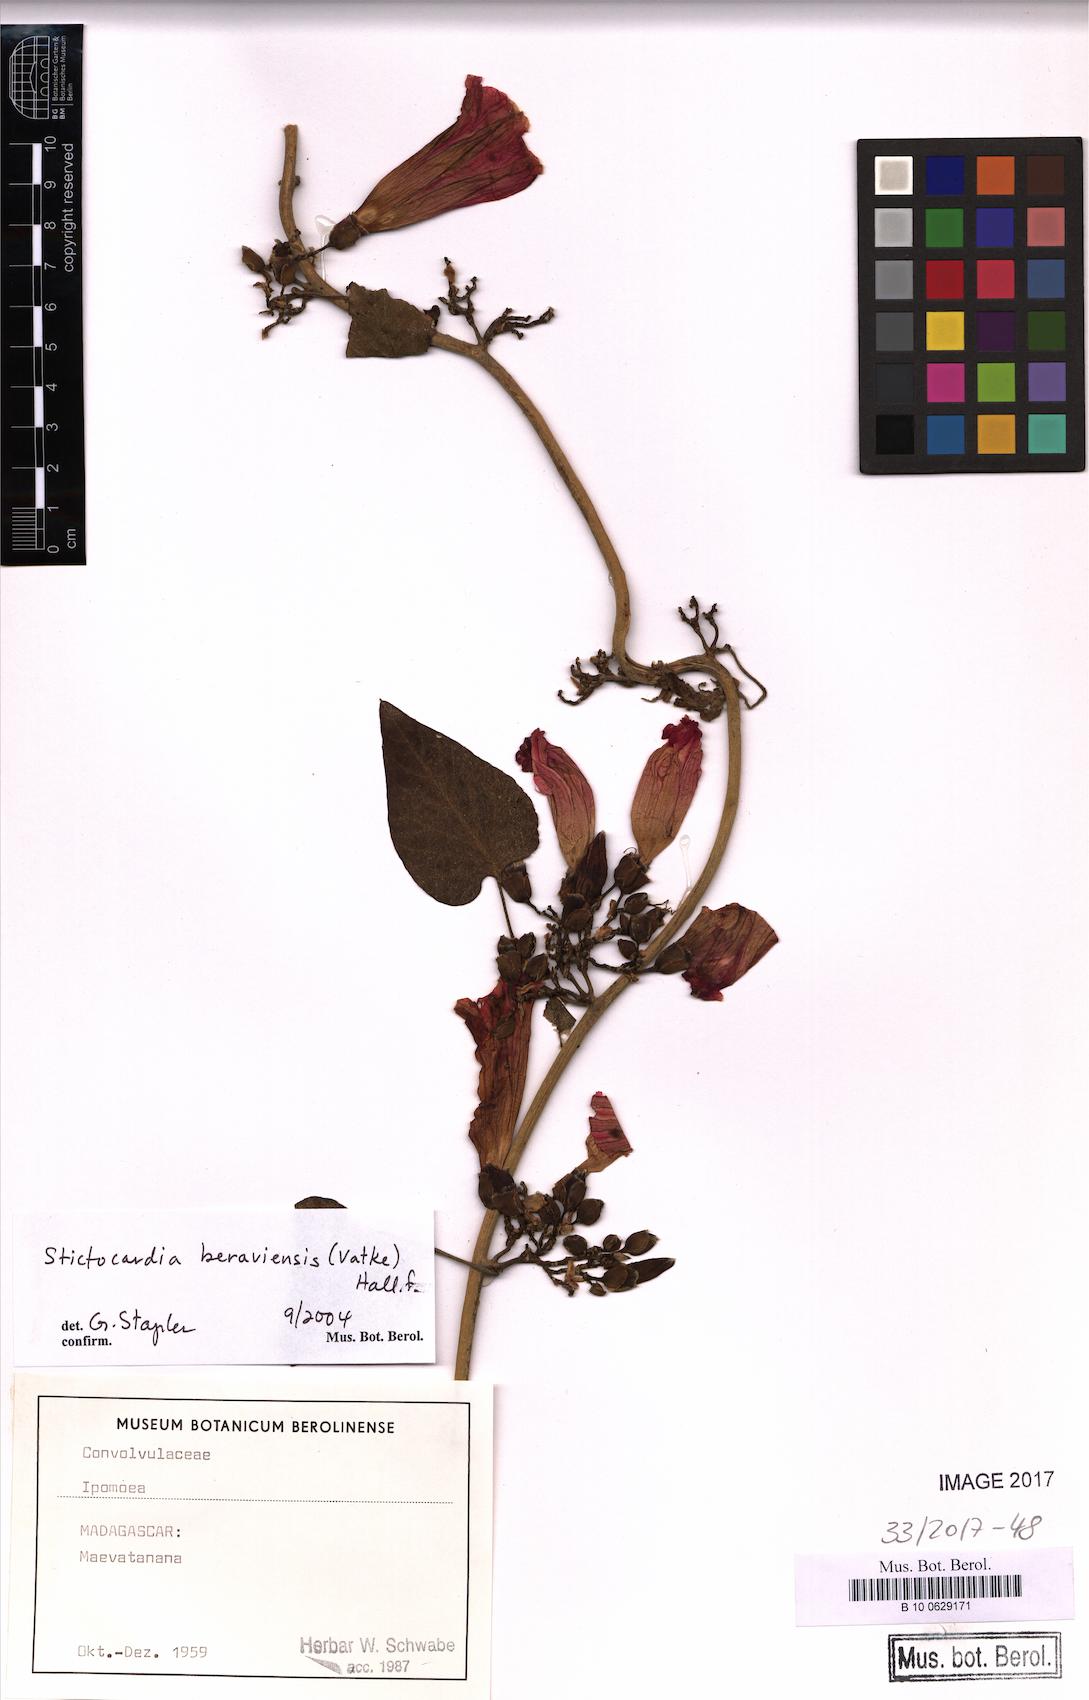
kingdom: Plantae
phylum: Tracheophyta
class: Magnoliopsida
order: Solanales
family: Convolvulaceae
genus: Stictocardia
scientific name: Stictocardia beraviensis
